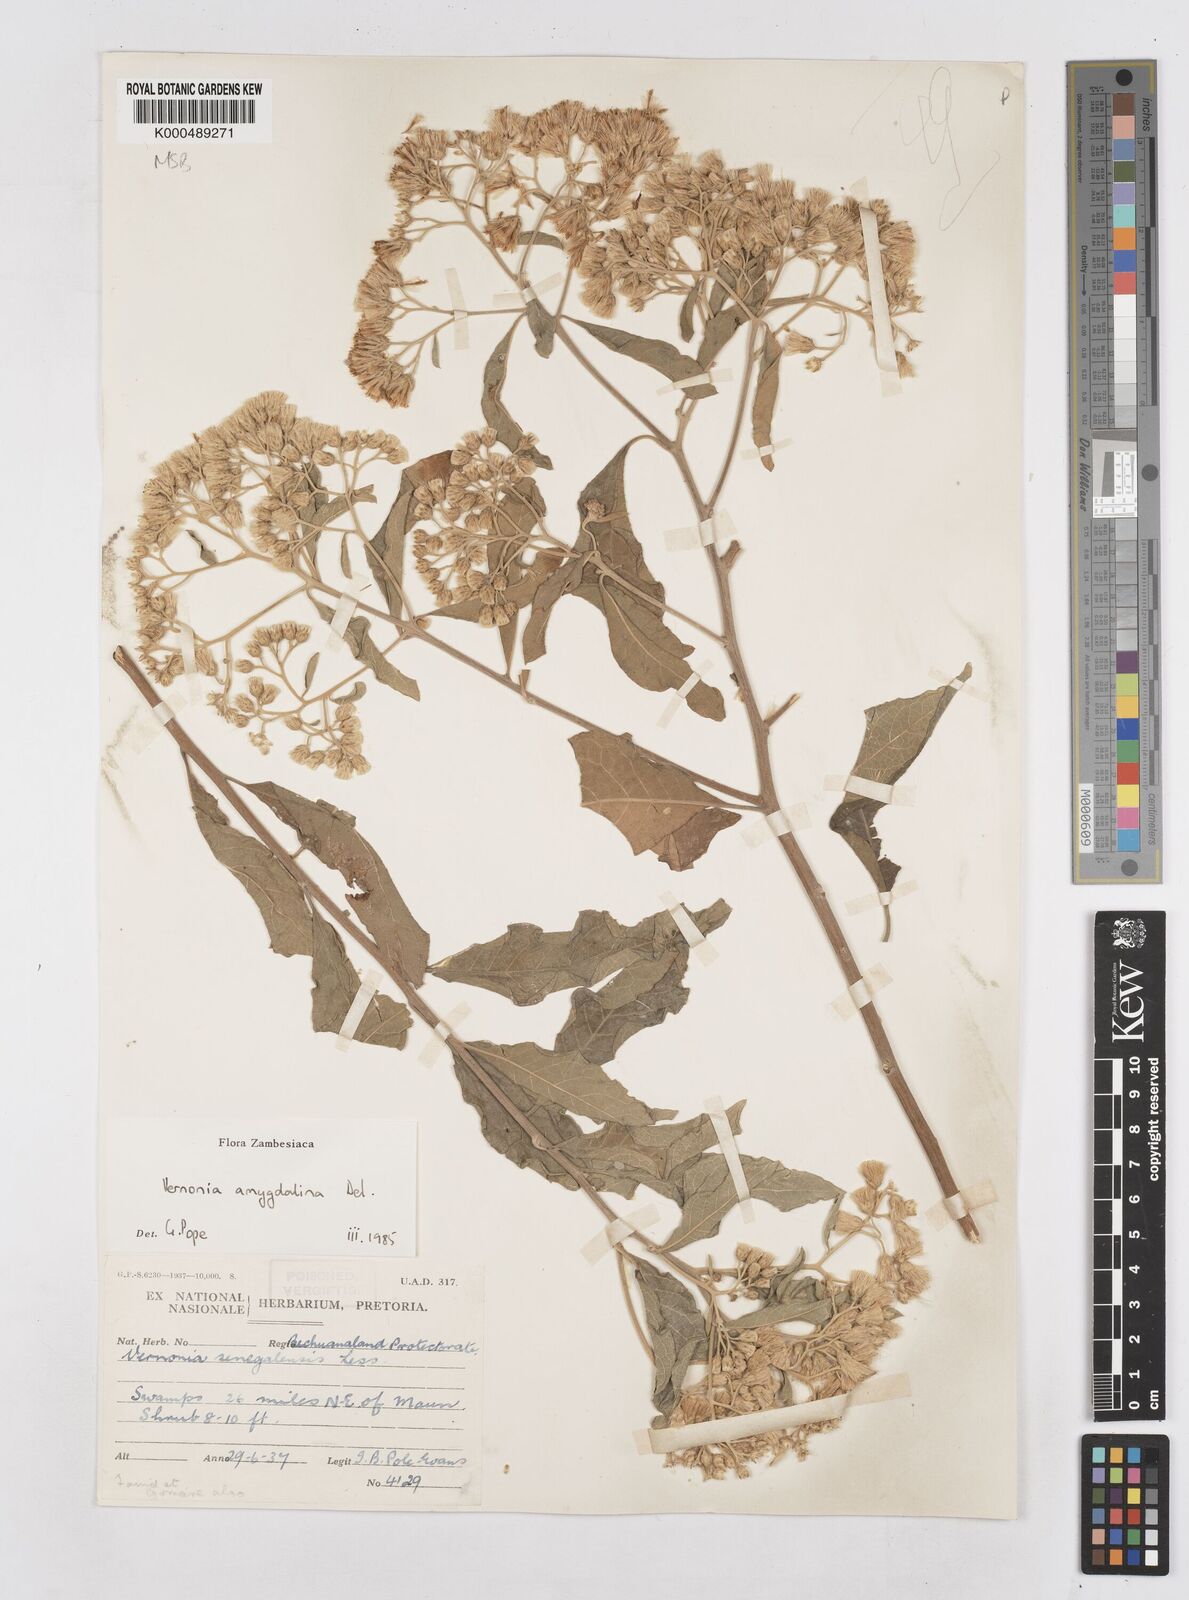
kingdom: Plantae
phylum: Tracheophyta
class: Magnoliopsida
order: Asterales
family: Asteraceae
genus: Gymnanthemum
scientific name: Gymnanthemum amygdalinum
